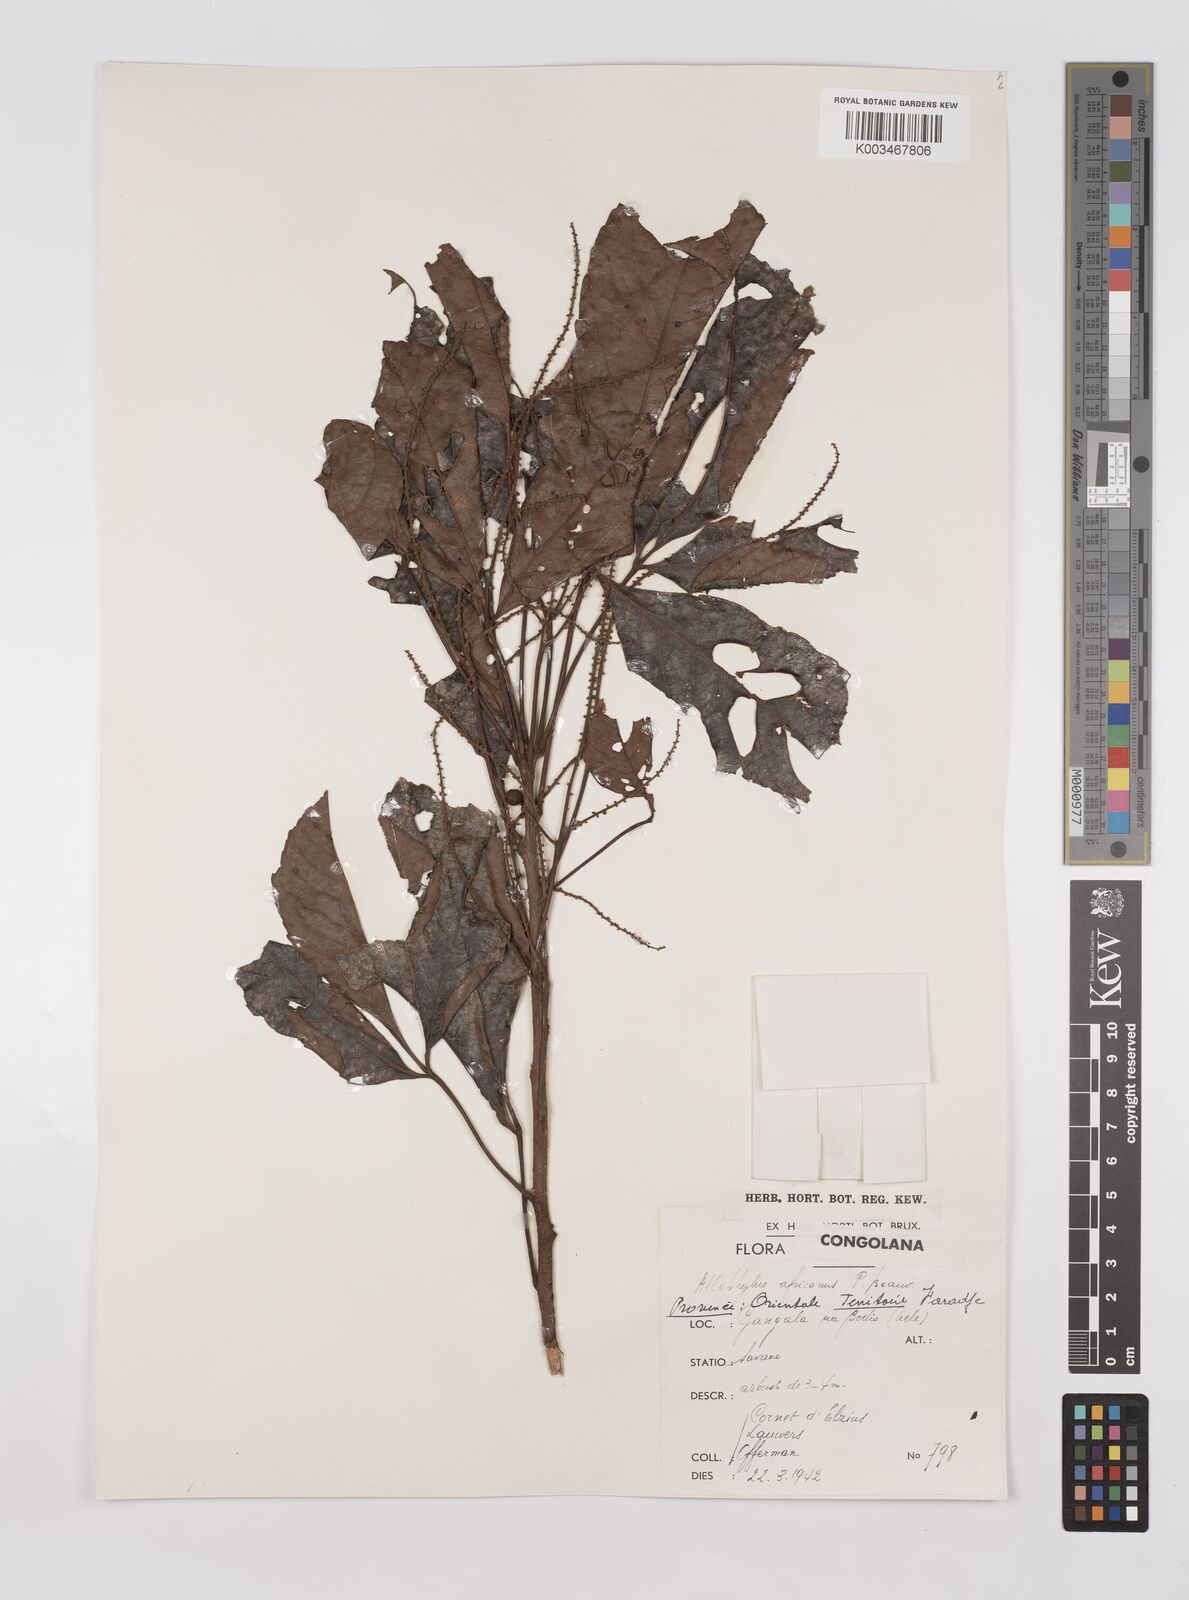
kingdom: Plantae
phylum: Tracheophyta
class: Magnoliopsida
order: Sapindales
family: Sapindaceae
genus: Allophylus
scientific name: Allophylus africanus
